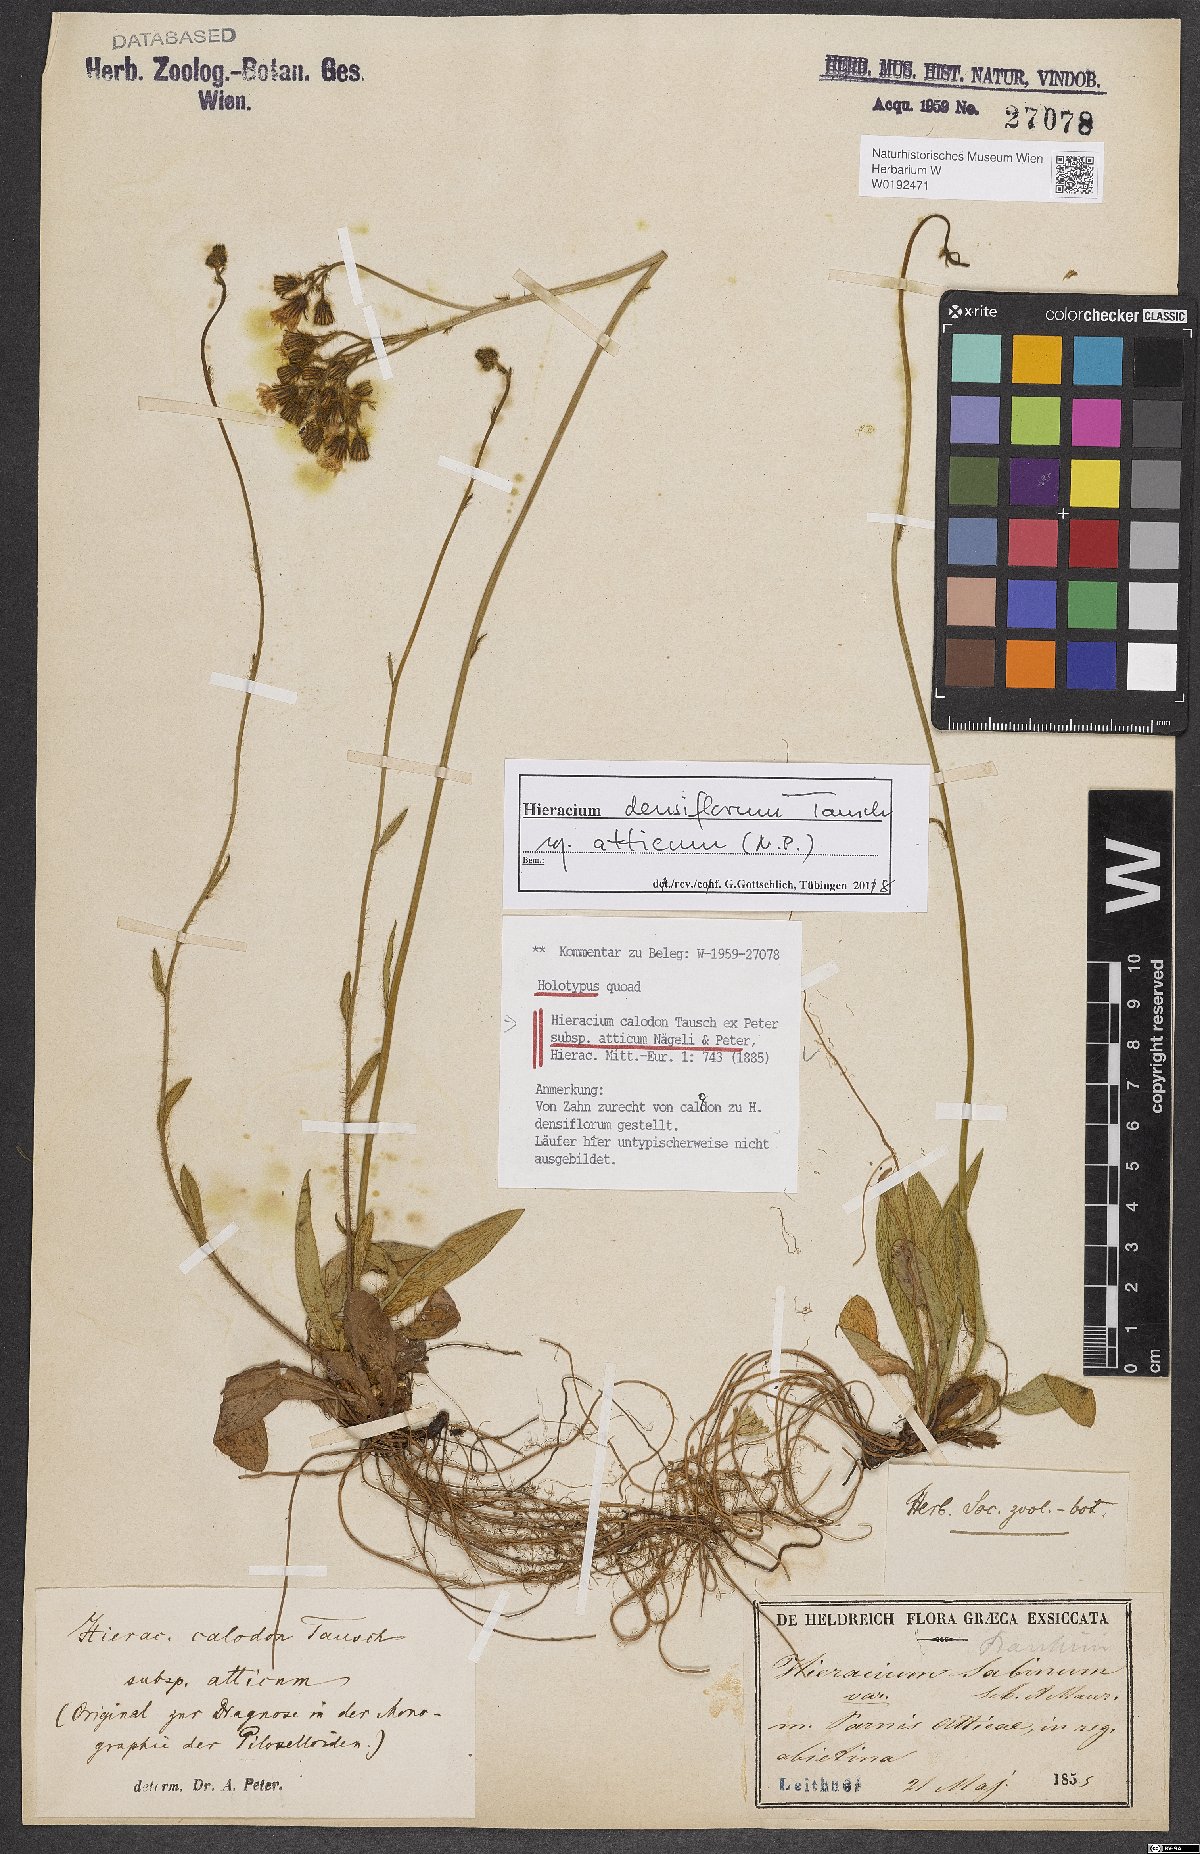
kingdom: Plantae
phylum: Tracheophyta
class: Magnoliopsida
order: Asterales
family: Asteraceae
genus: Pilosella
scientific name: Pilosella densiflora
